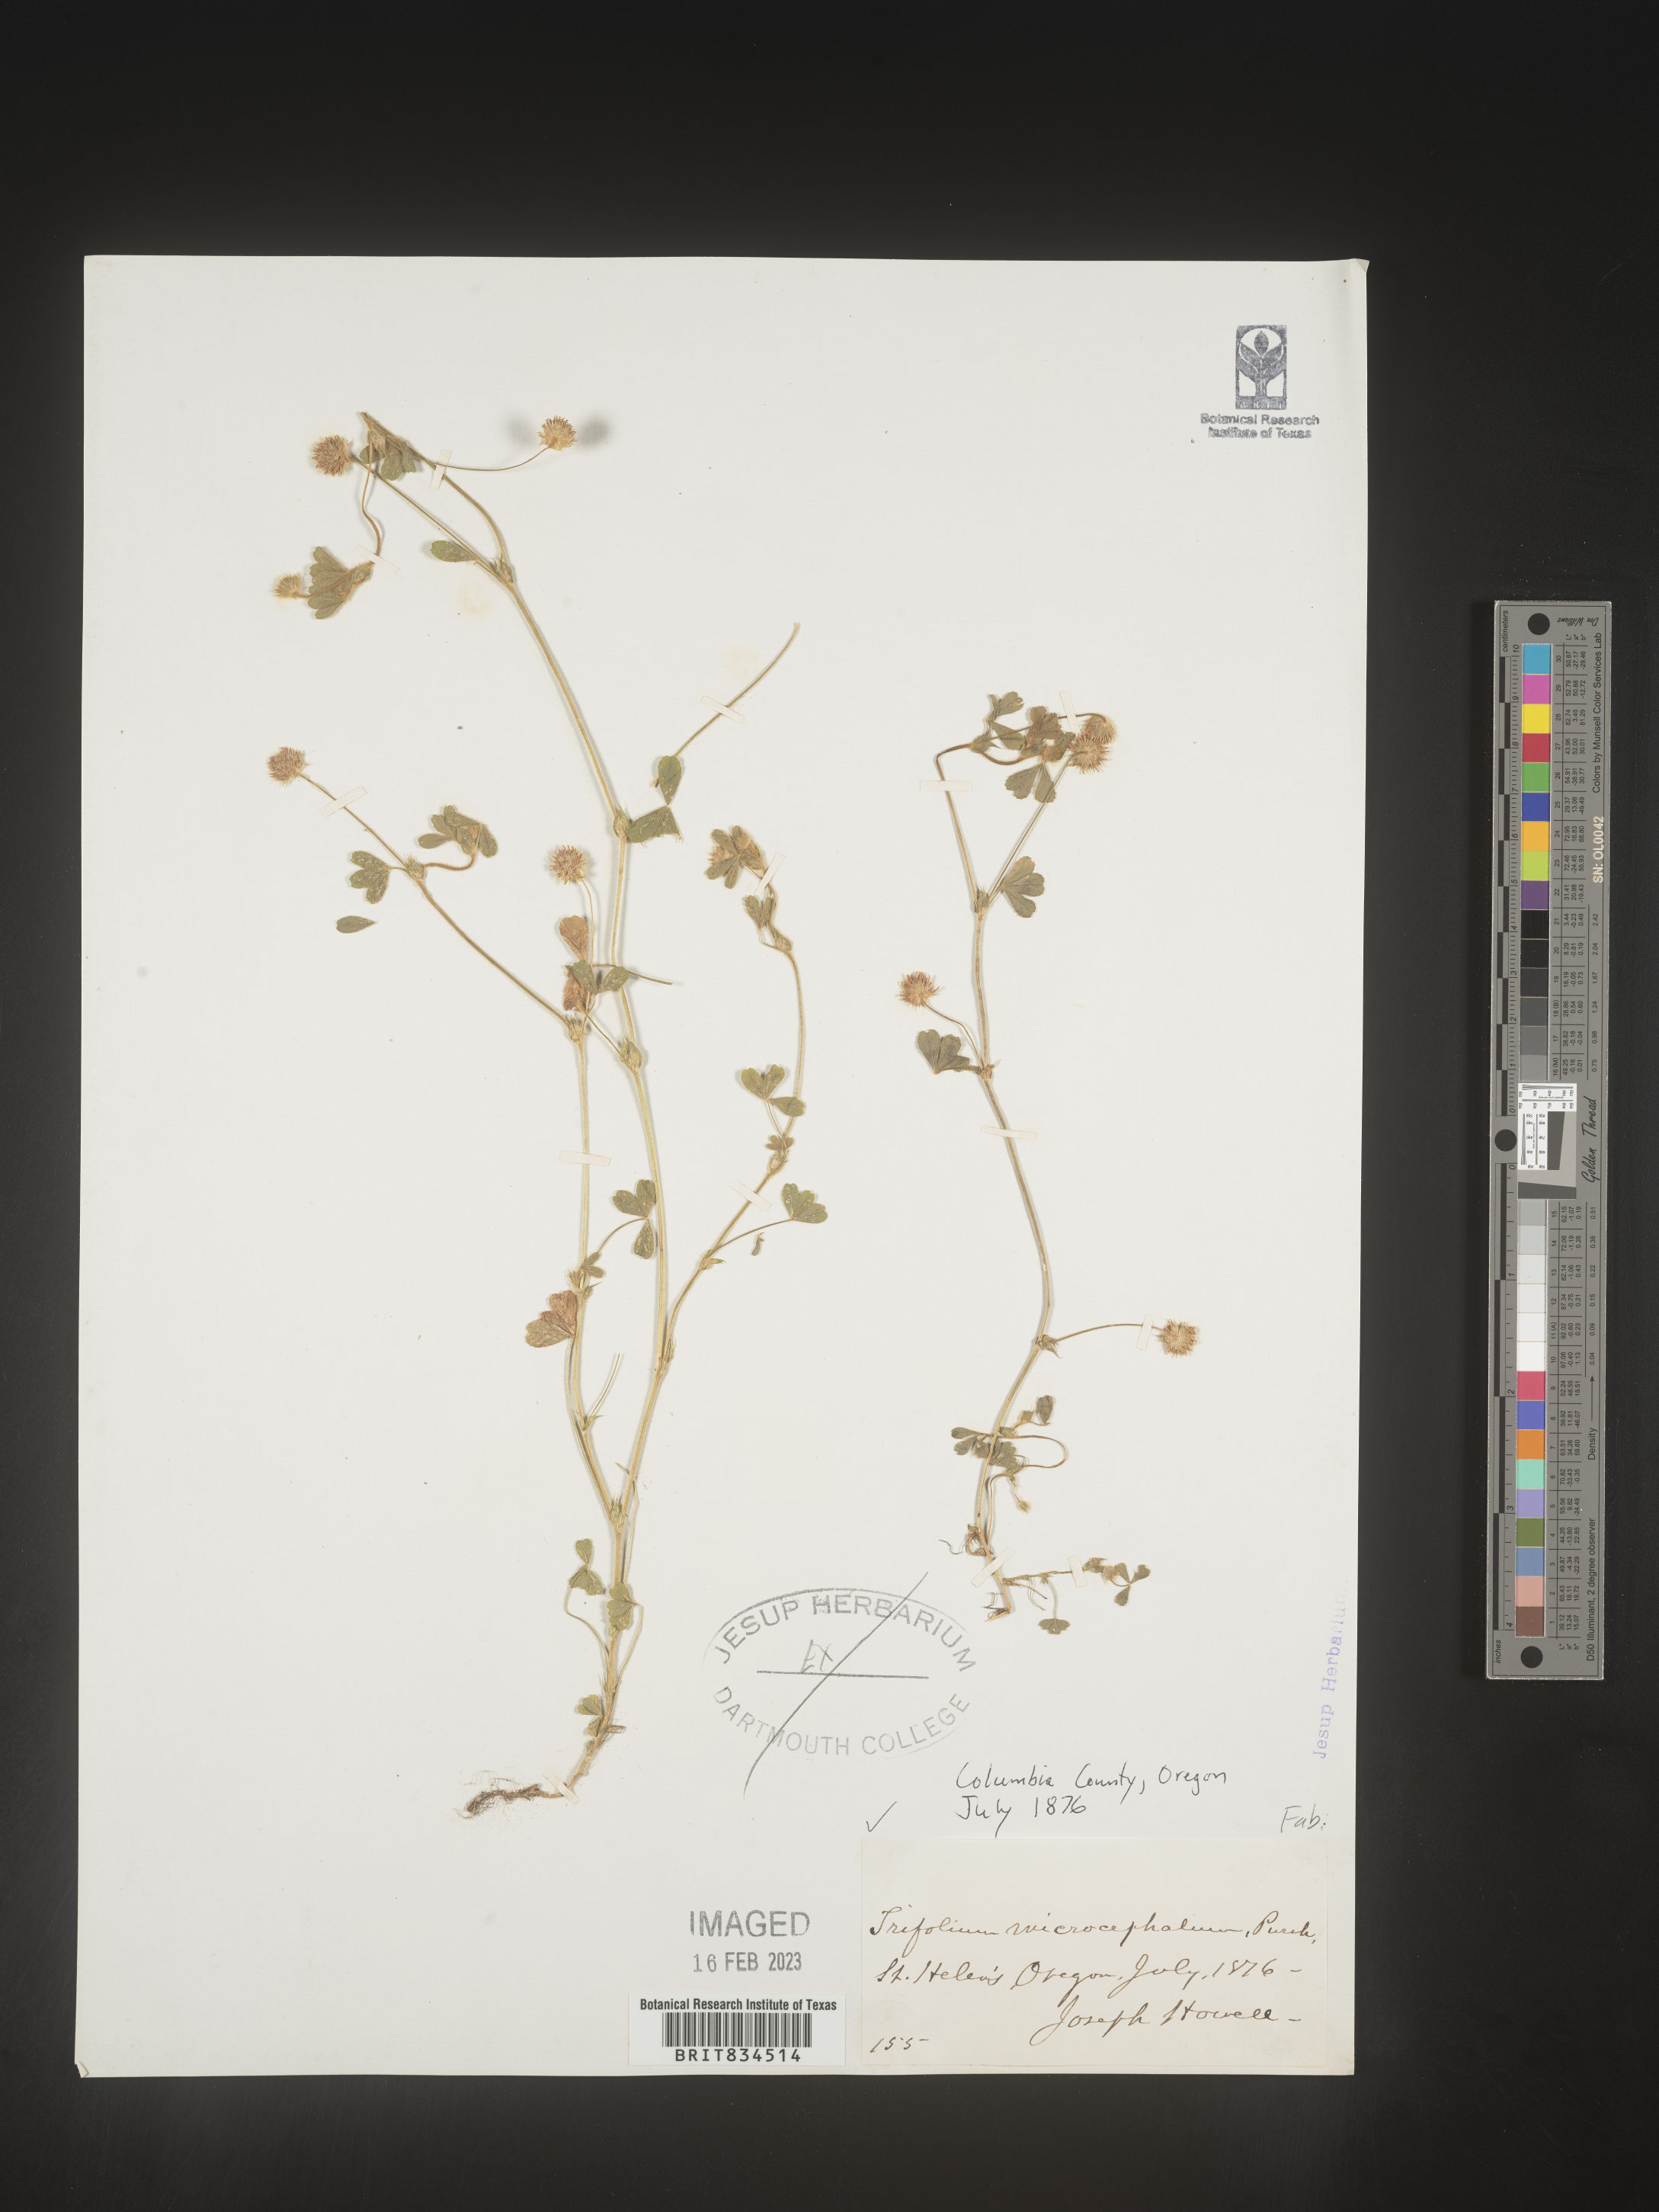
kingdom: Plantae
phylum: Tracheophyta
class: Magnoliopsida
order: Fabales
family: Fabaceae
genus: Trifolium
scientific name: Trifolium
